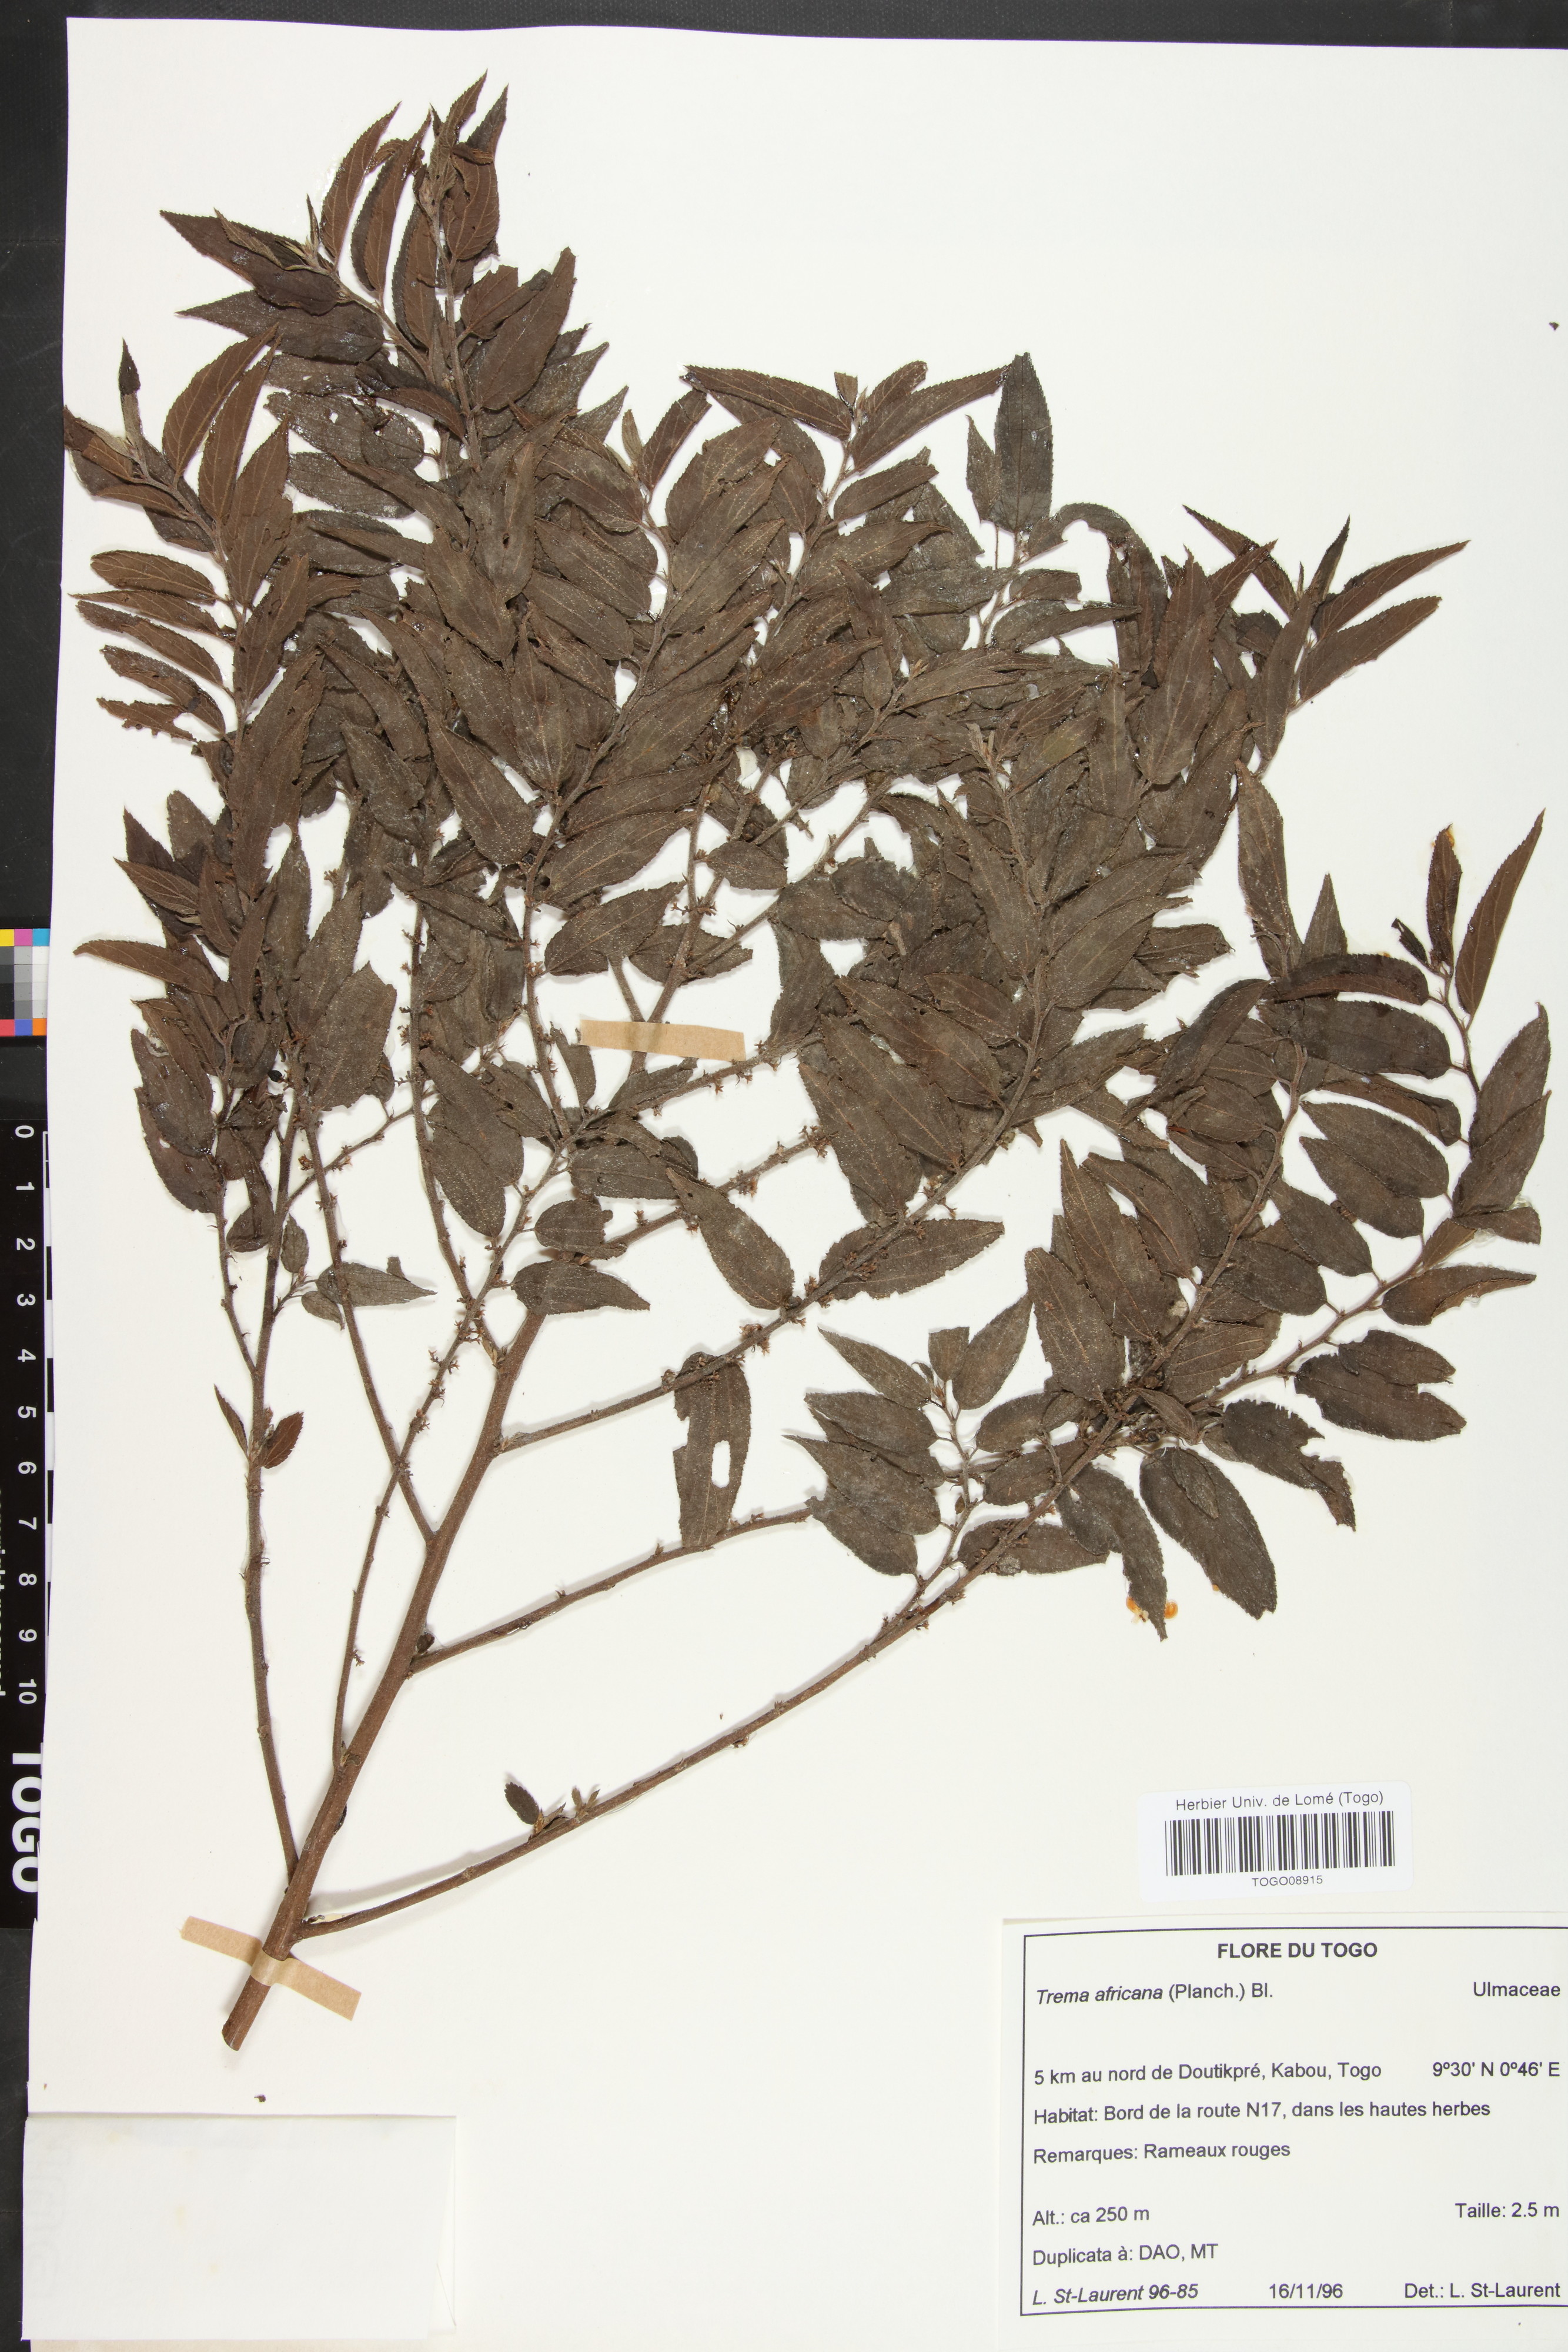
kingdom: Plantae
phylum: Tracheophyta
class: Magnoliopsida
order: Rosales
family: Cannabaceae
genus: Trema
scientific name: Trema orientale
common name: Indian charcoal tree
